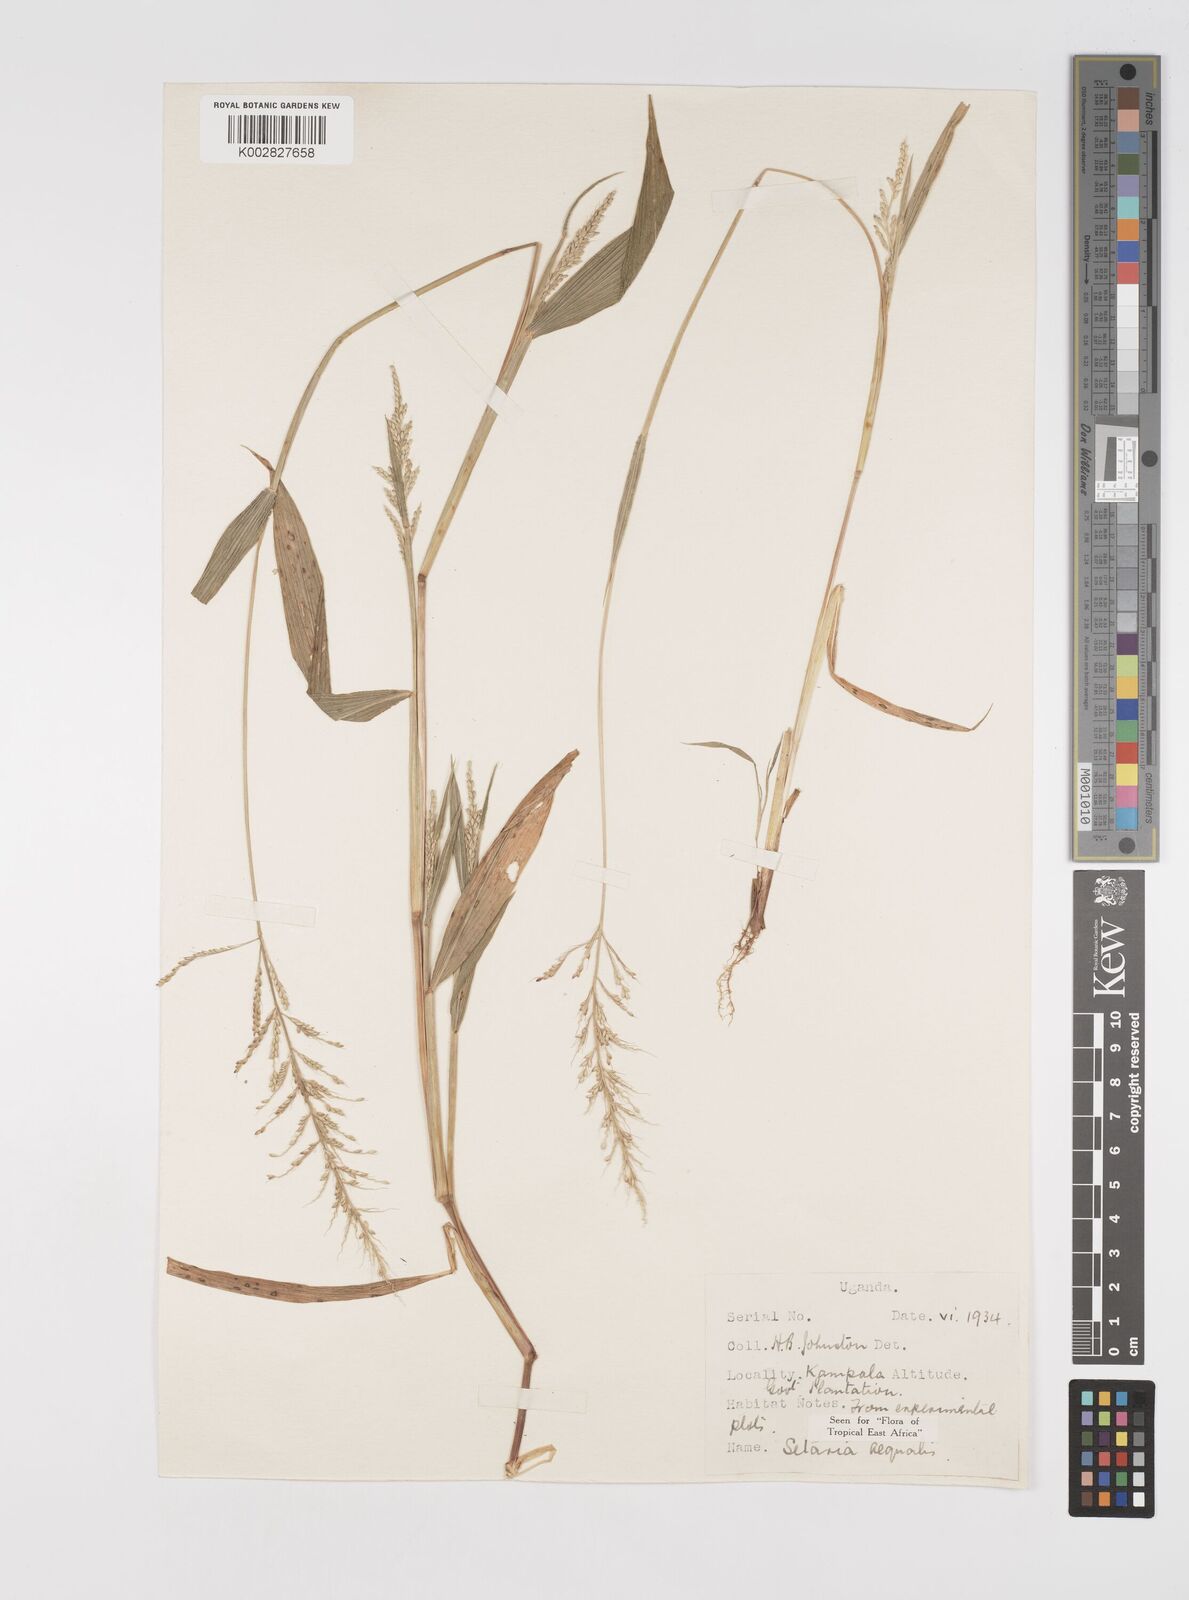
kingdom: Plantae
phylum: Tracheophyta
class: Liliopsida
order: Poales
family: Poaceae
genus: Setaria
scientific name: Setaria homonyma
